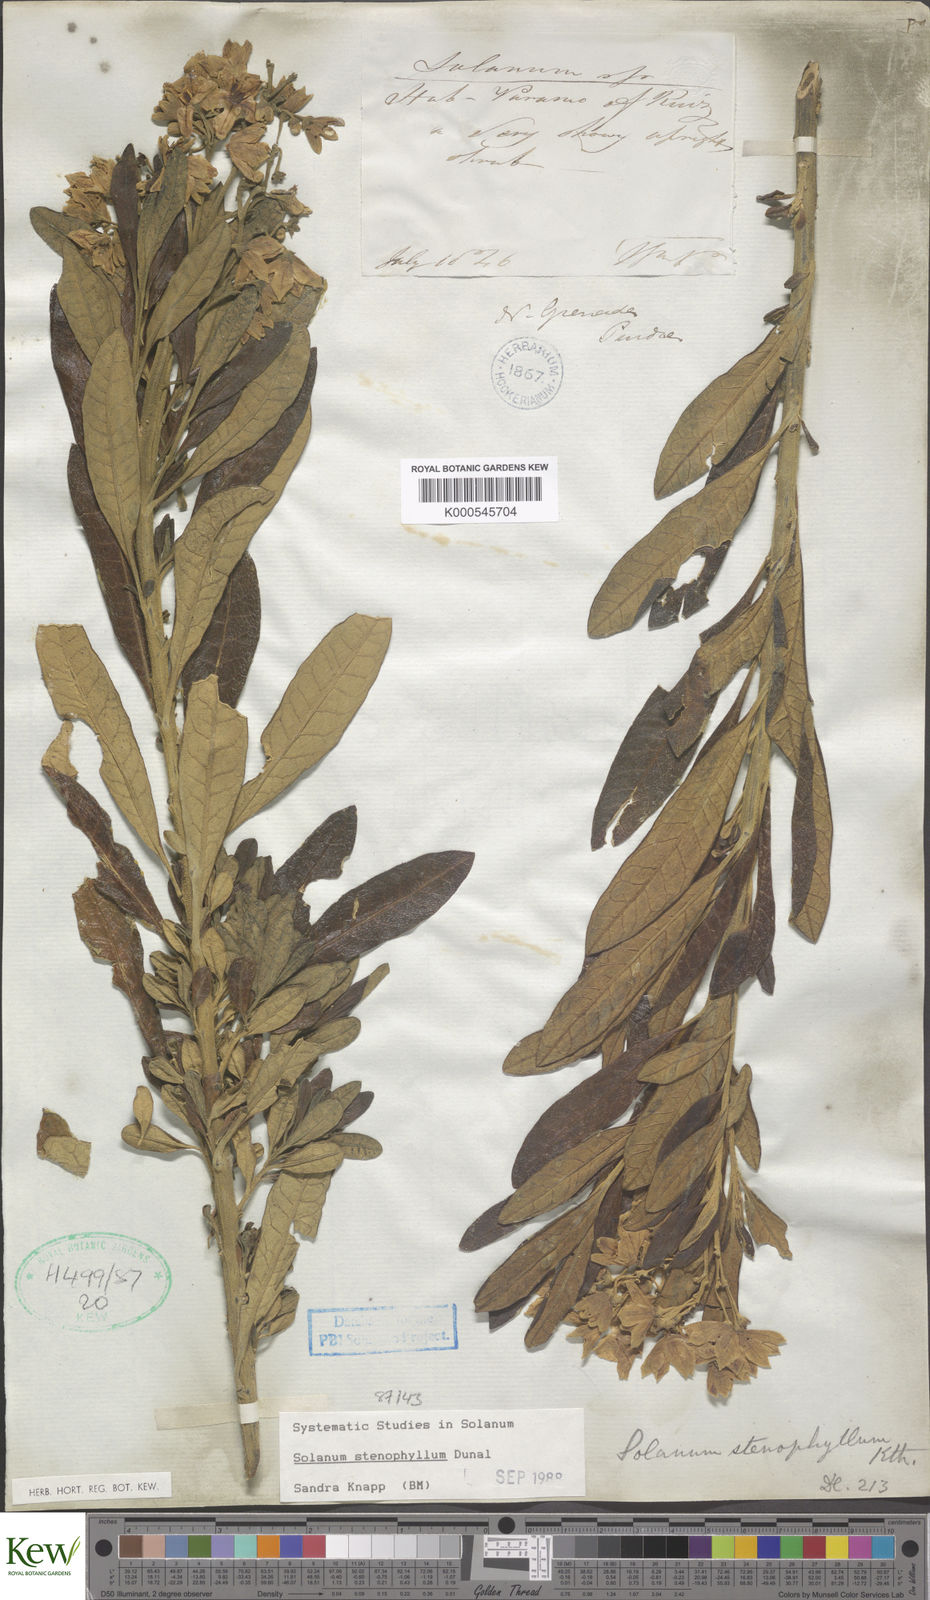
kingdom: Plantae
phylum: Tracheophyta
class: Magnoliopsida
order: Solanales
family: Solanaceae
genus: Solanum
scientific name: Solanum stenophyllum
